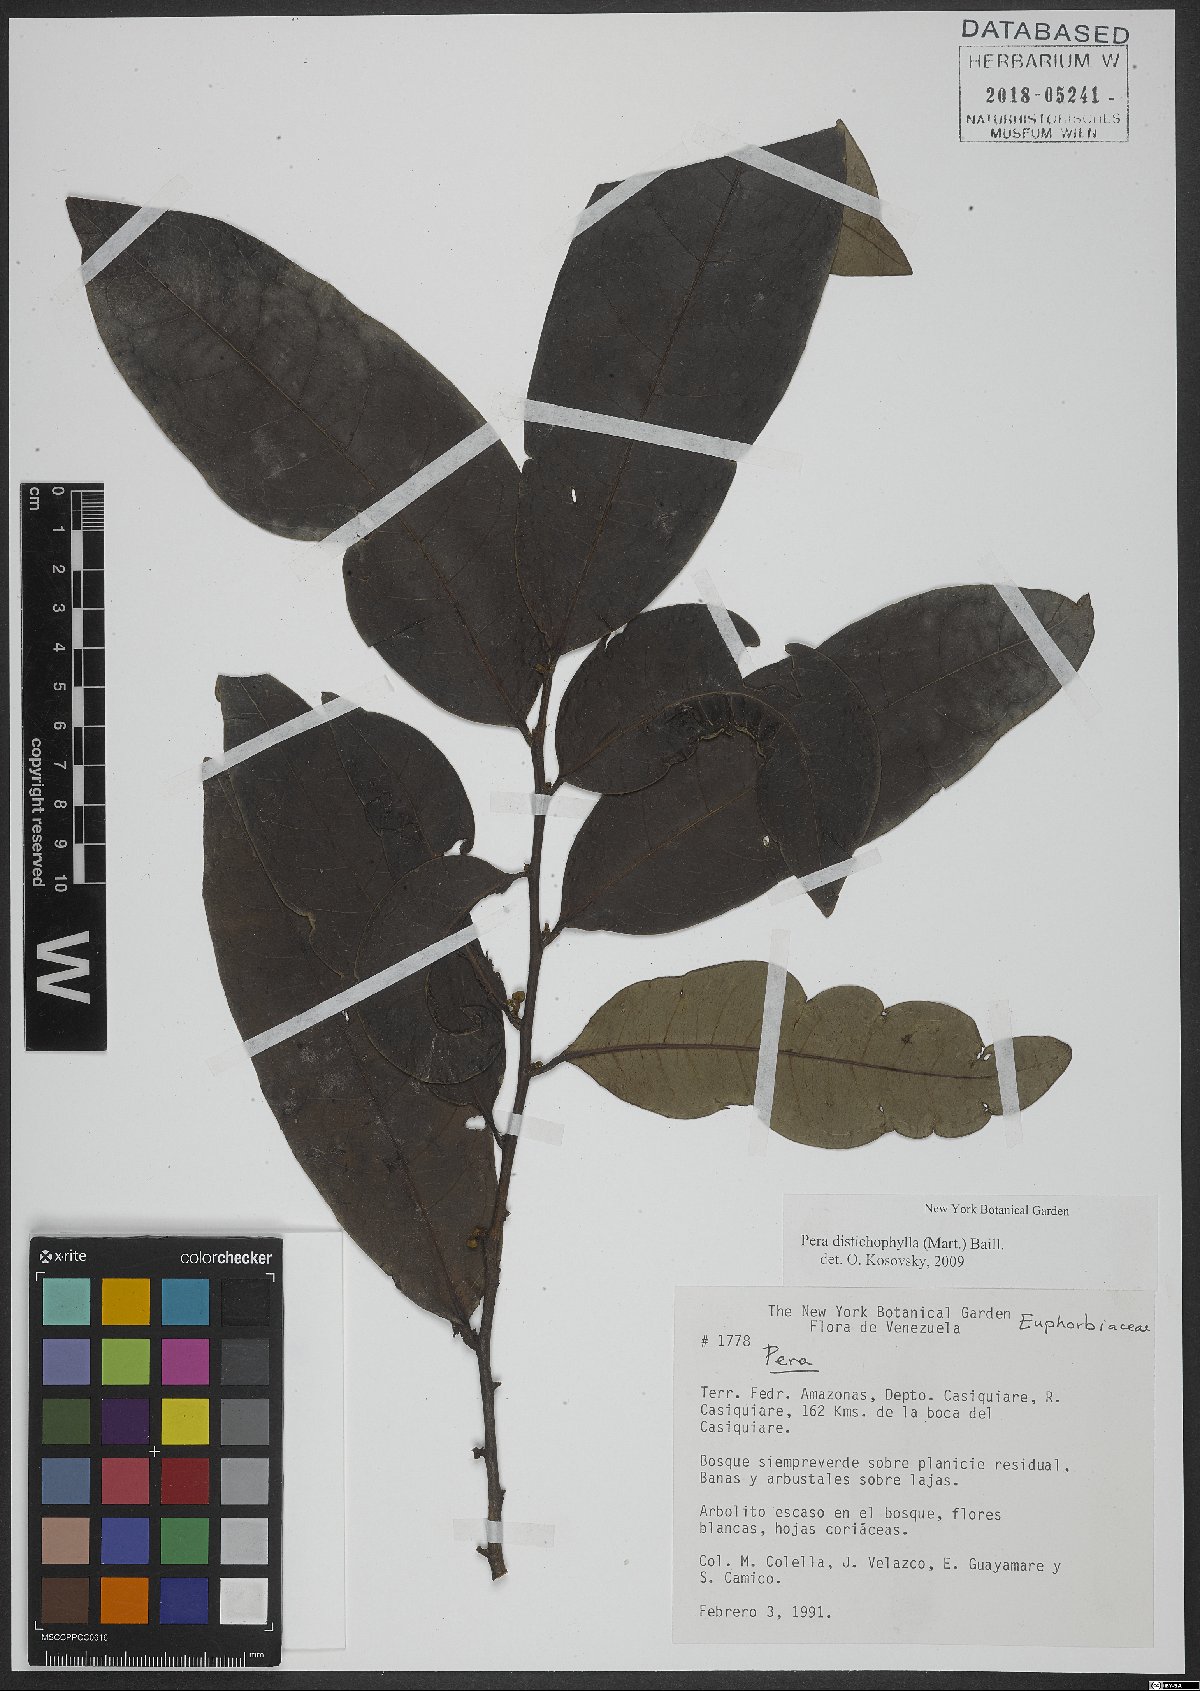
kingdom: Plantae
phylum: Tracheophyta
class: Magnoliopsida
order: Malpighiales
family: Peraceae
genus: Pera
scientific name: Pera distichophylla
